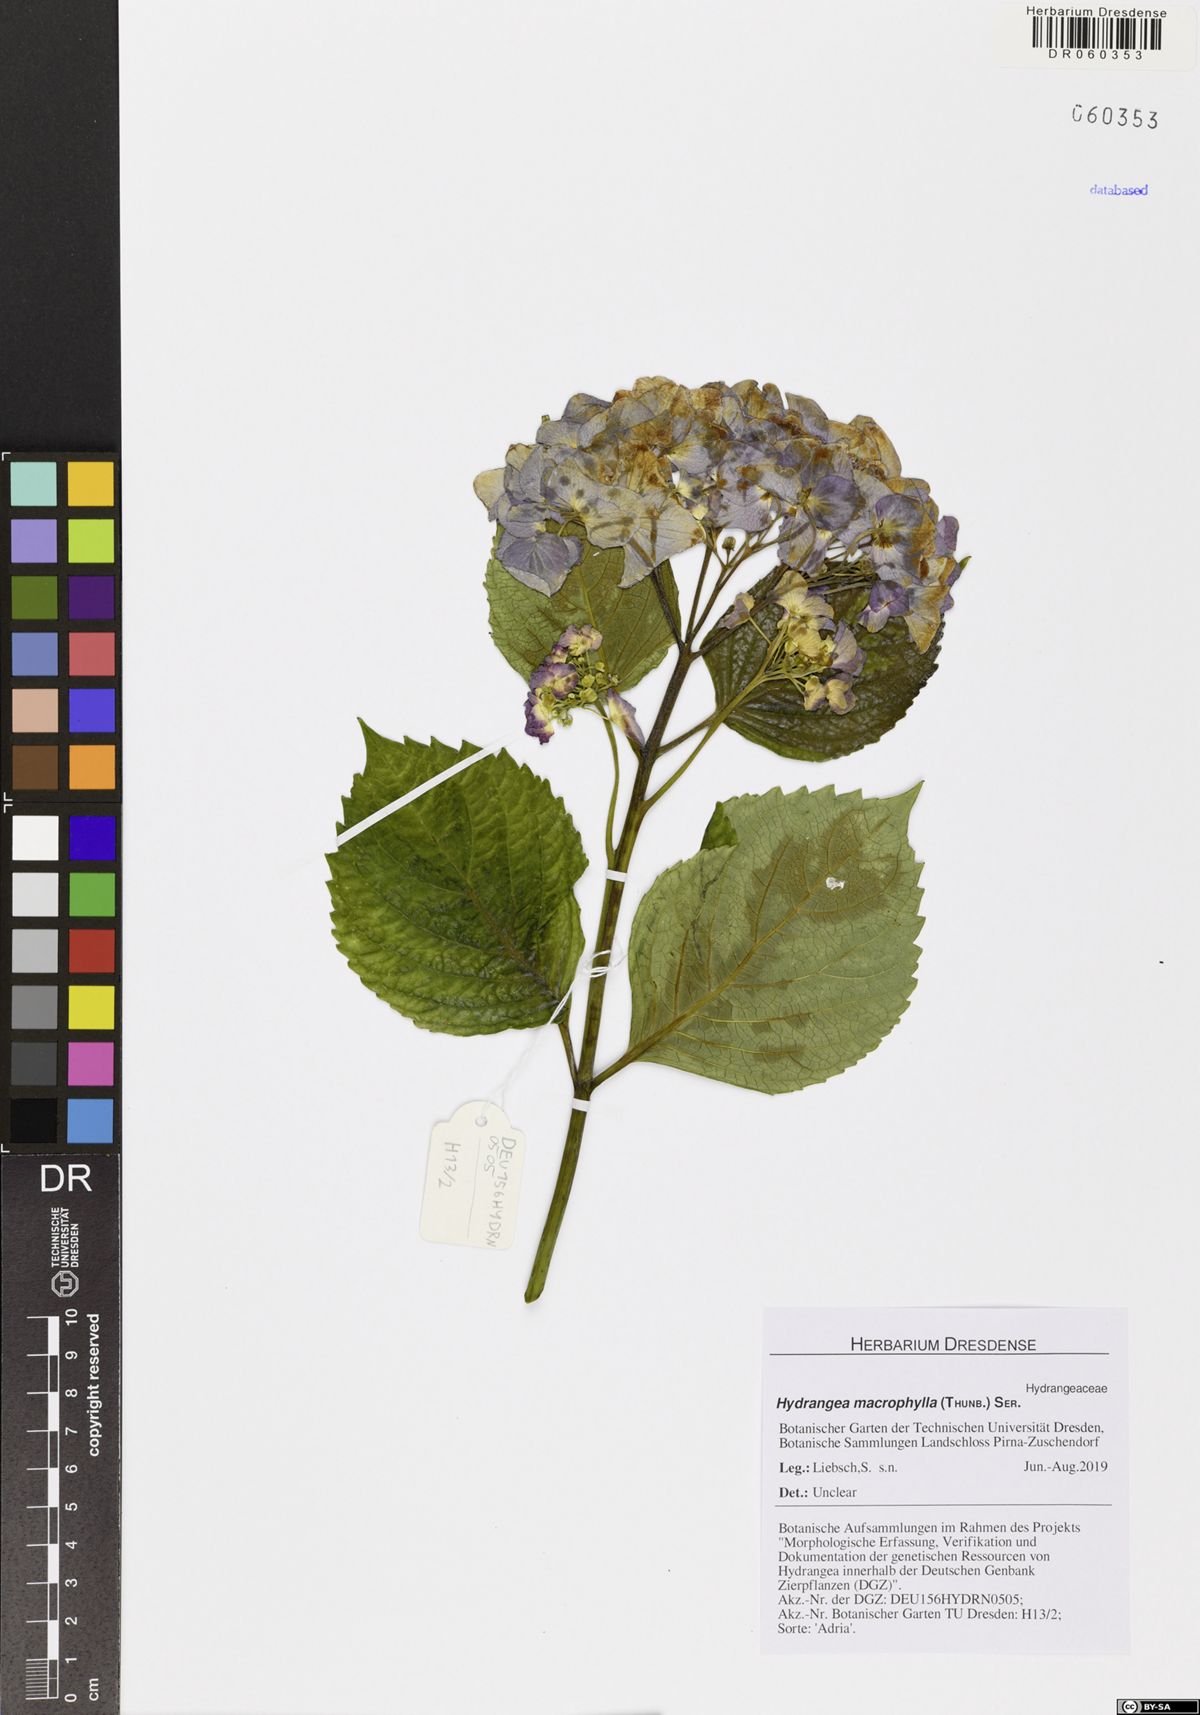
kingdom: Plantae
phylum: Tracheophyta
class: Magnoliopsida
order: Cornales
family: Hydrangeaceae
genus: Hydrangea
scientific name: Hydrangea macrophylla
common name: Hydrangea
